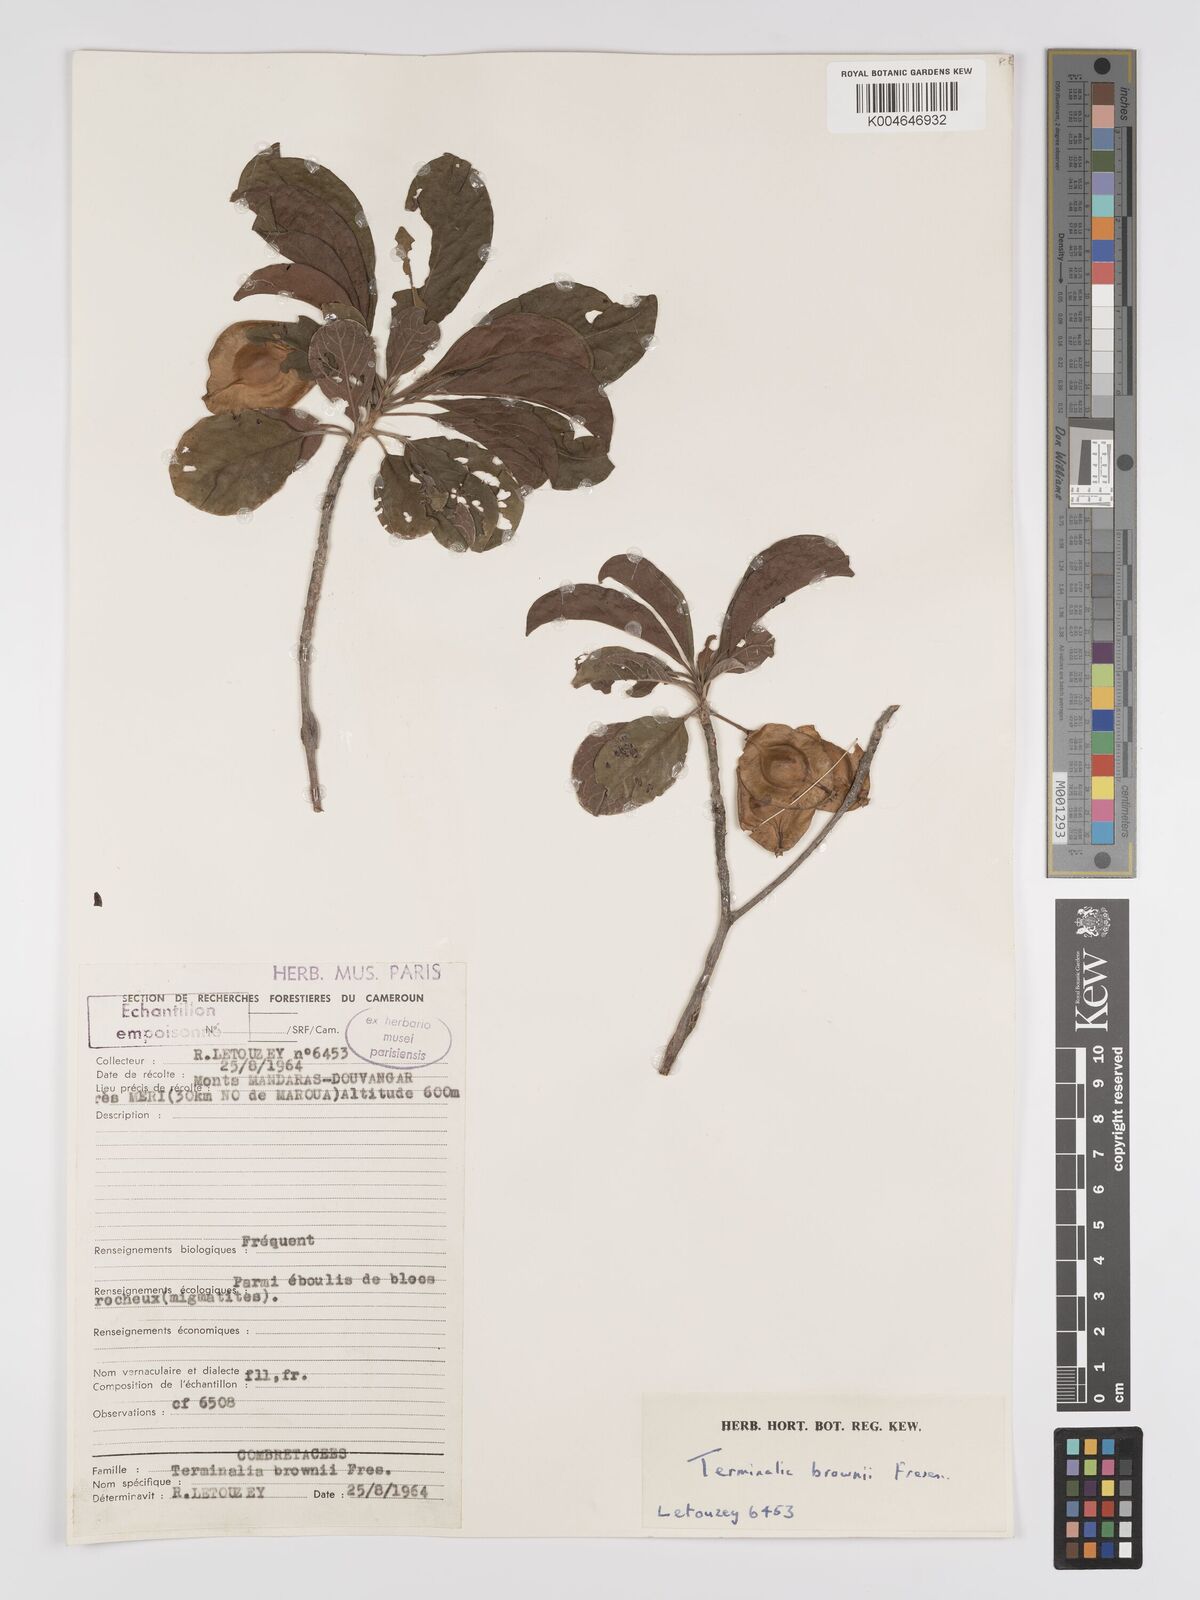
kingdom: Plantae
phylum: Tracheophyta
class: Magnoliopsida
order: Myrtales
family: Combretaceae
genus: Terminalia
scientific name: Terminalia brownii
